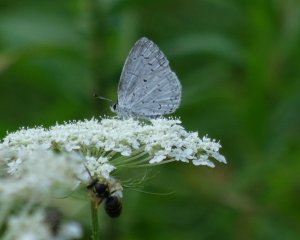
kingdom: Animalia
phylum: Arthropoda
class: Insecta
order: Lepidoptera
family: Lycaenidae
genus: Cyaniris
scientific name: Cyaniris neglecta
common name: Summer Azure
